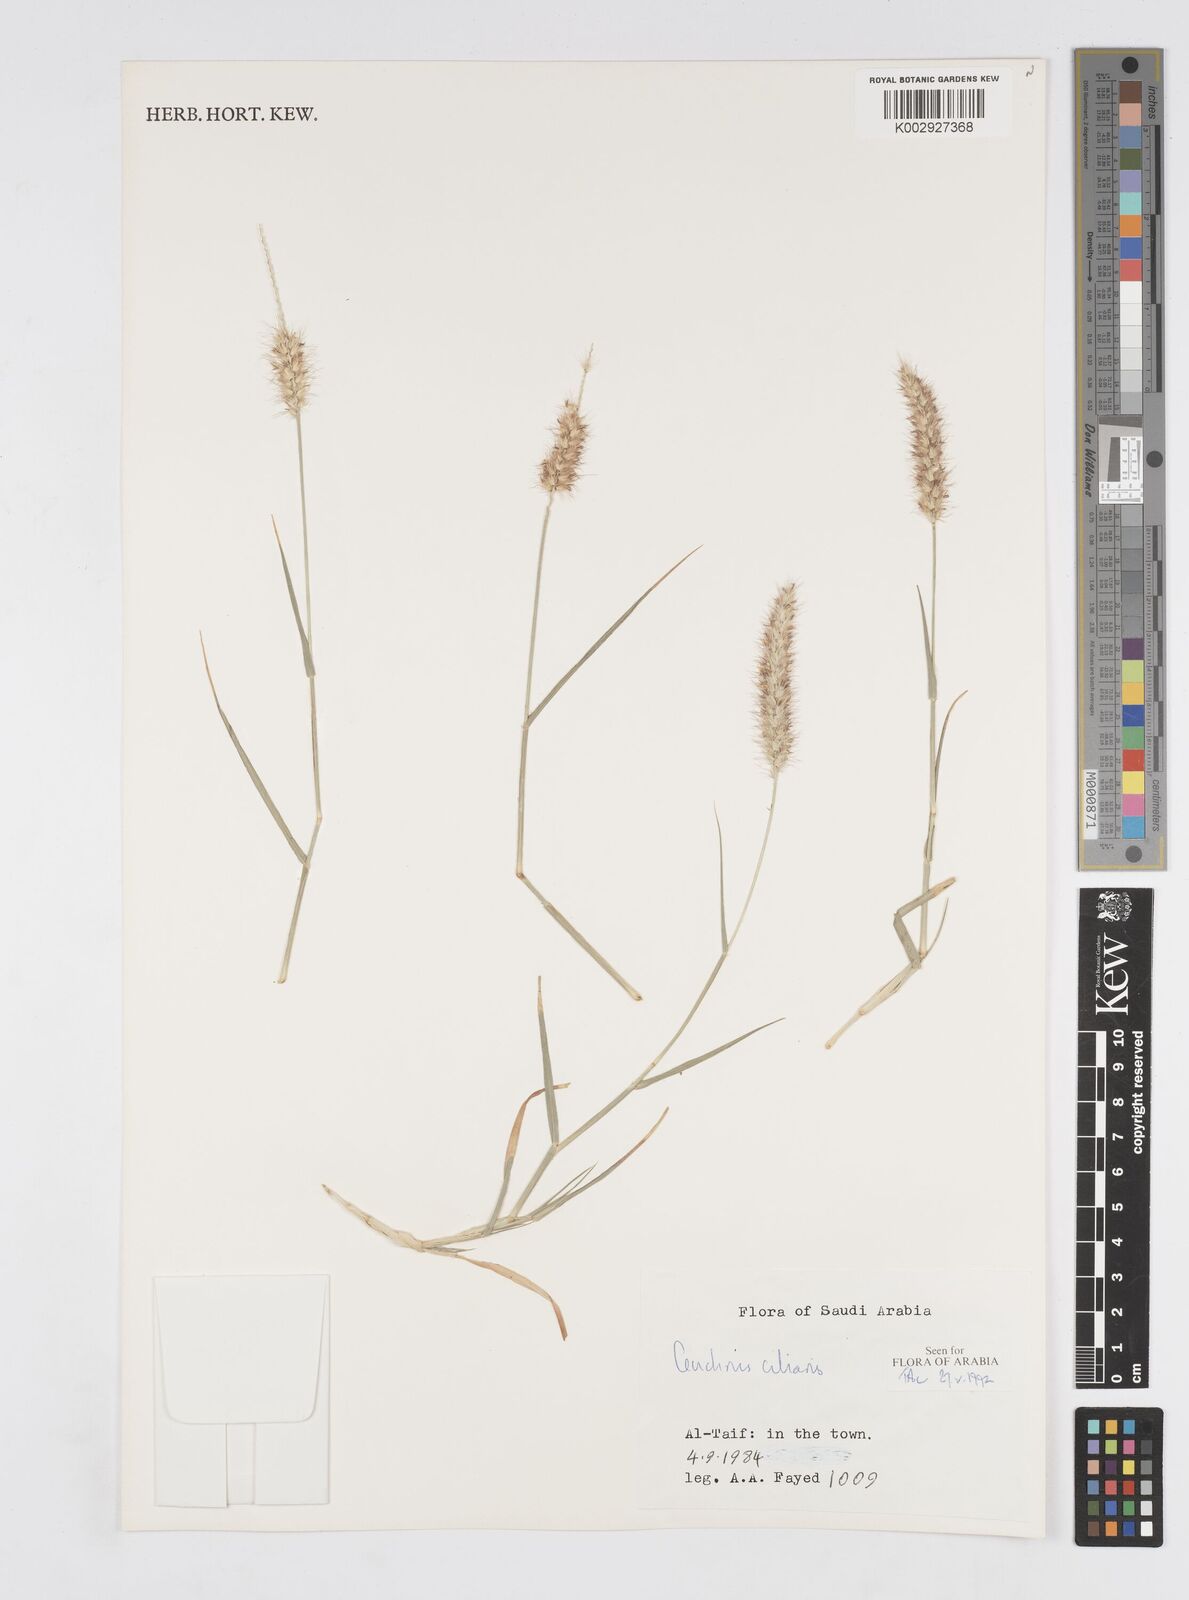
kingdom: Plantae
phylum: Tracheophyta
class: Liliopsida
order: Poales
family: Poaceae
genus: Cenchrus
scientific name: Cenchrus ciliaris
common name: Buffelgrass
